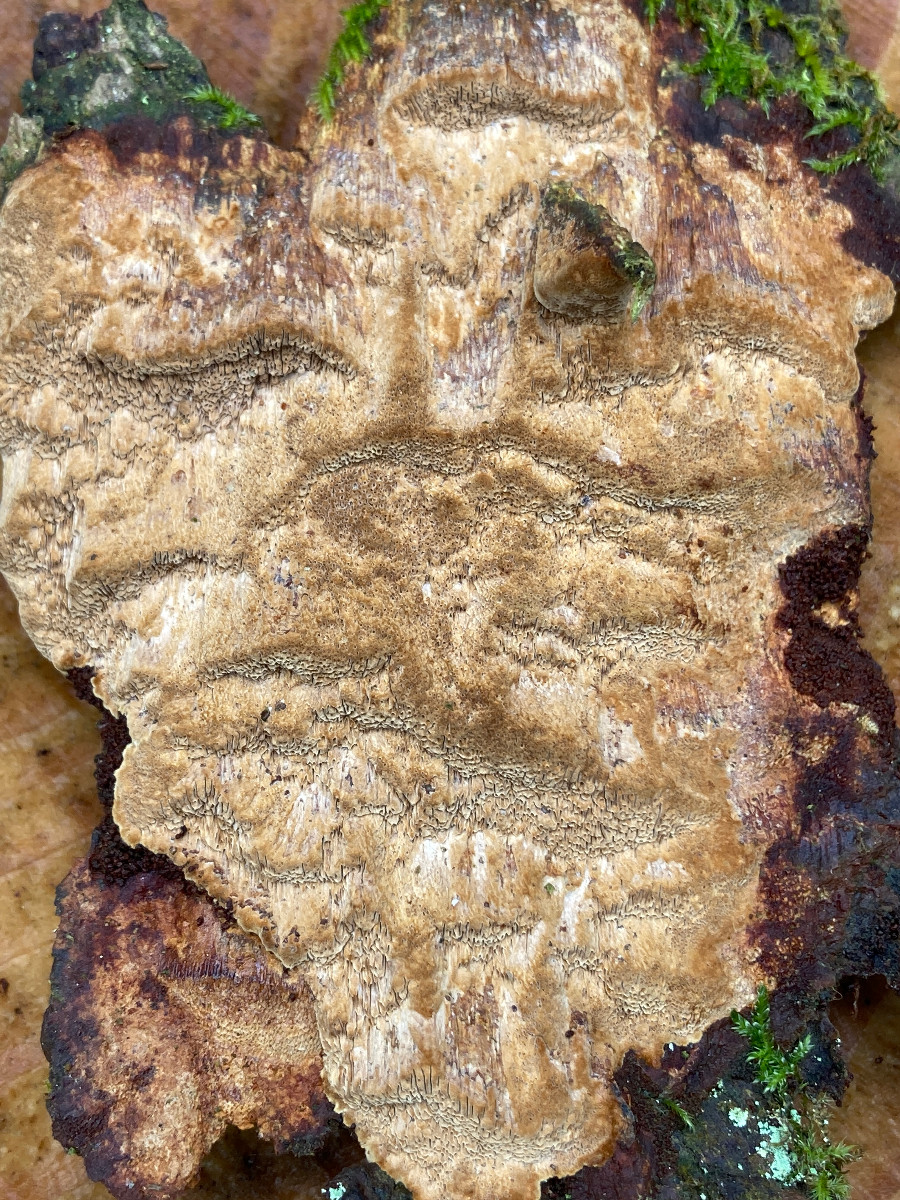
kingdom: Fungi
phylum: Basidiomycota
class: Agaricomycetes
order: Hymenochaetales
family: Hymenochaetaceae
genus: Fuscoporia
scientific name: Fuscoporia ferrea
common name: skorpe-ildporesvamp
